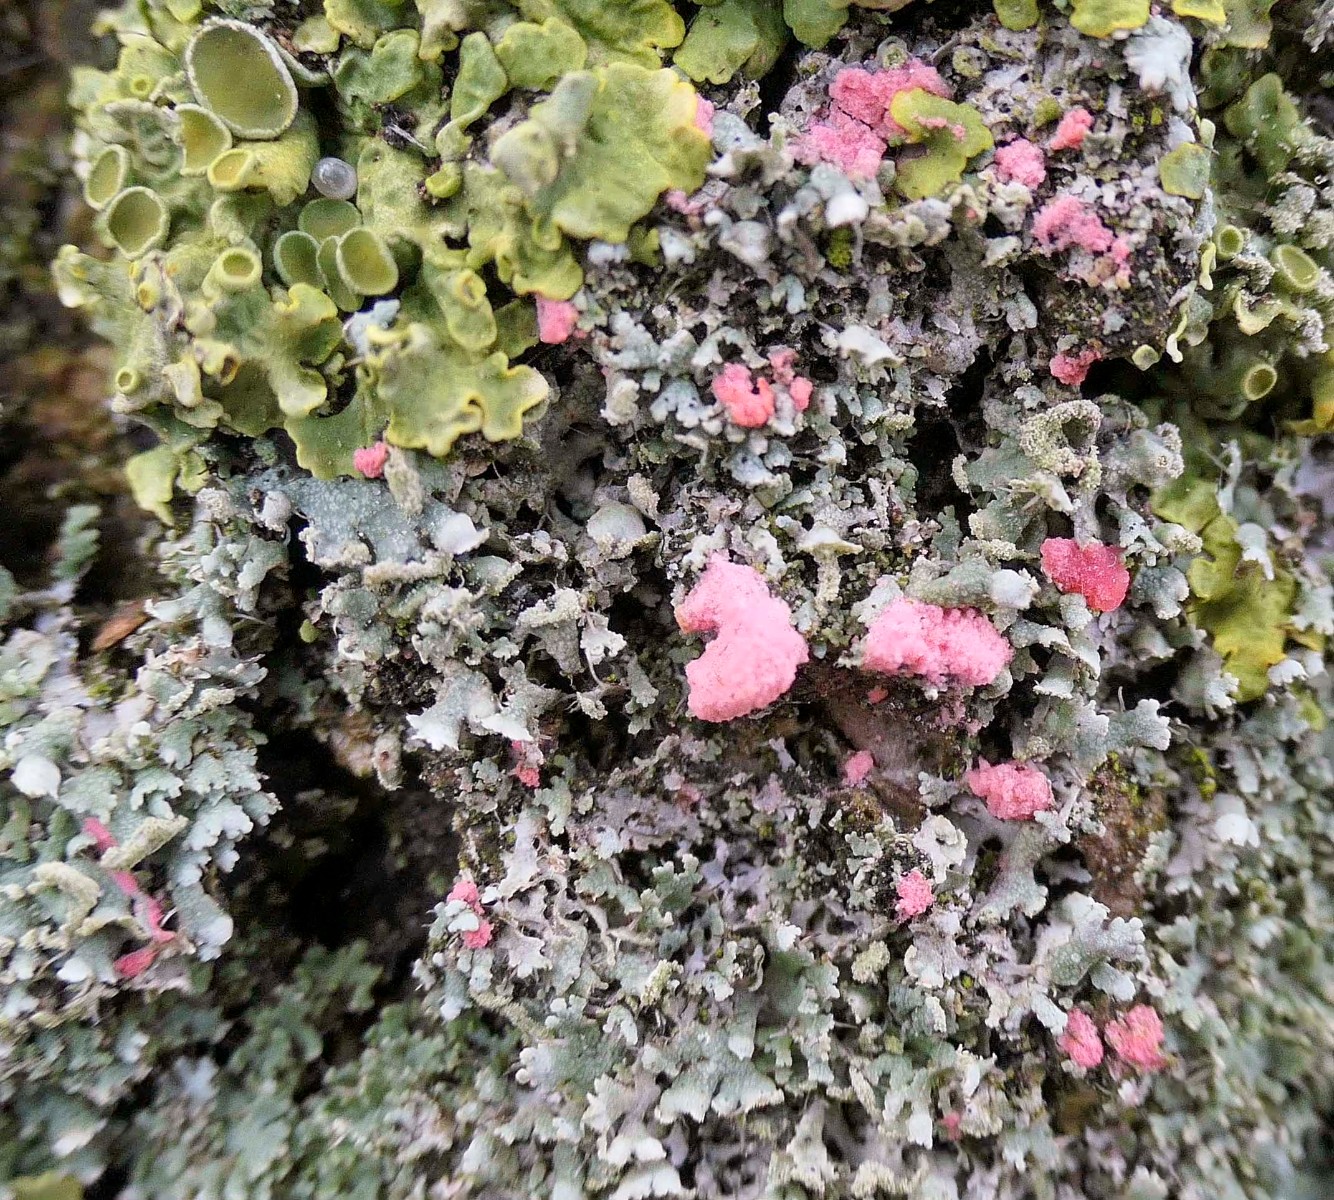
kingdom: Fungi
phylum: Ascomycota
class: Sordariomycetes
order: Hypocreales
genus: Illosporiopsis
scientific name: Illosporiopsis christiansenii
